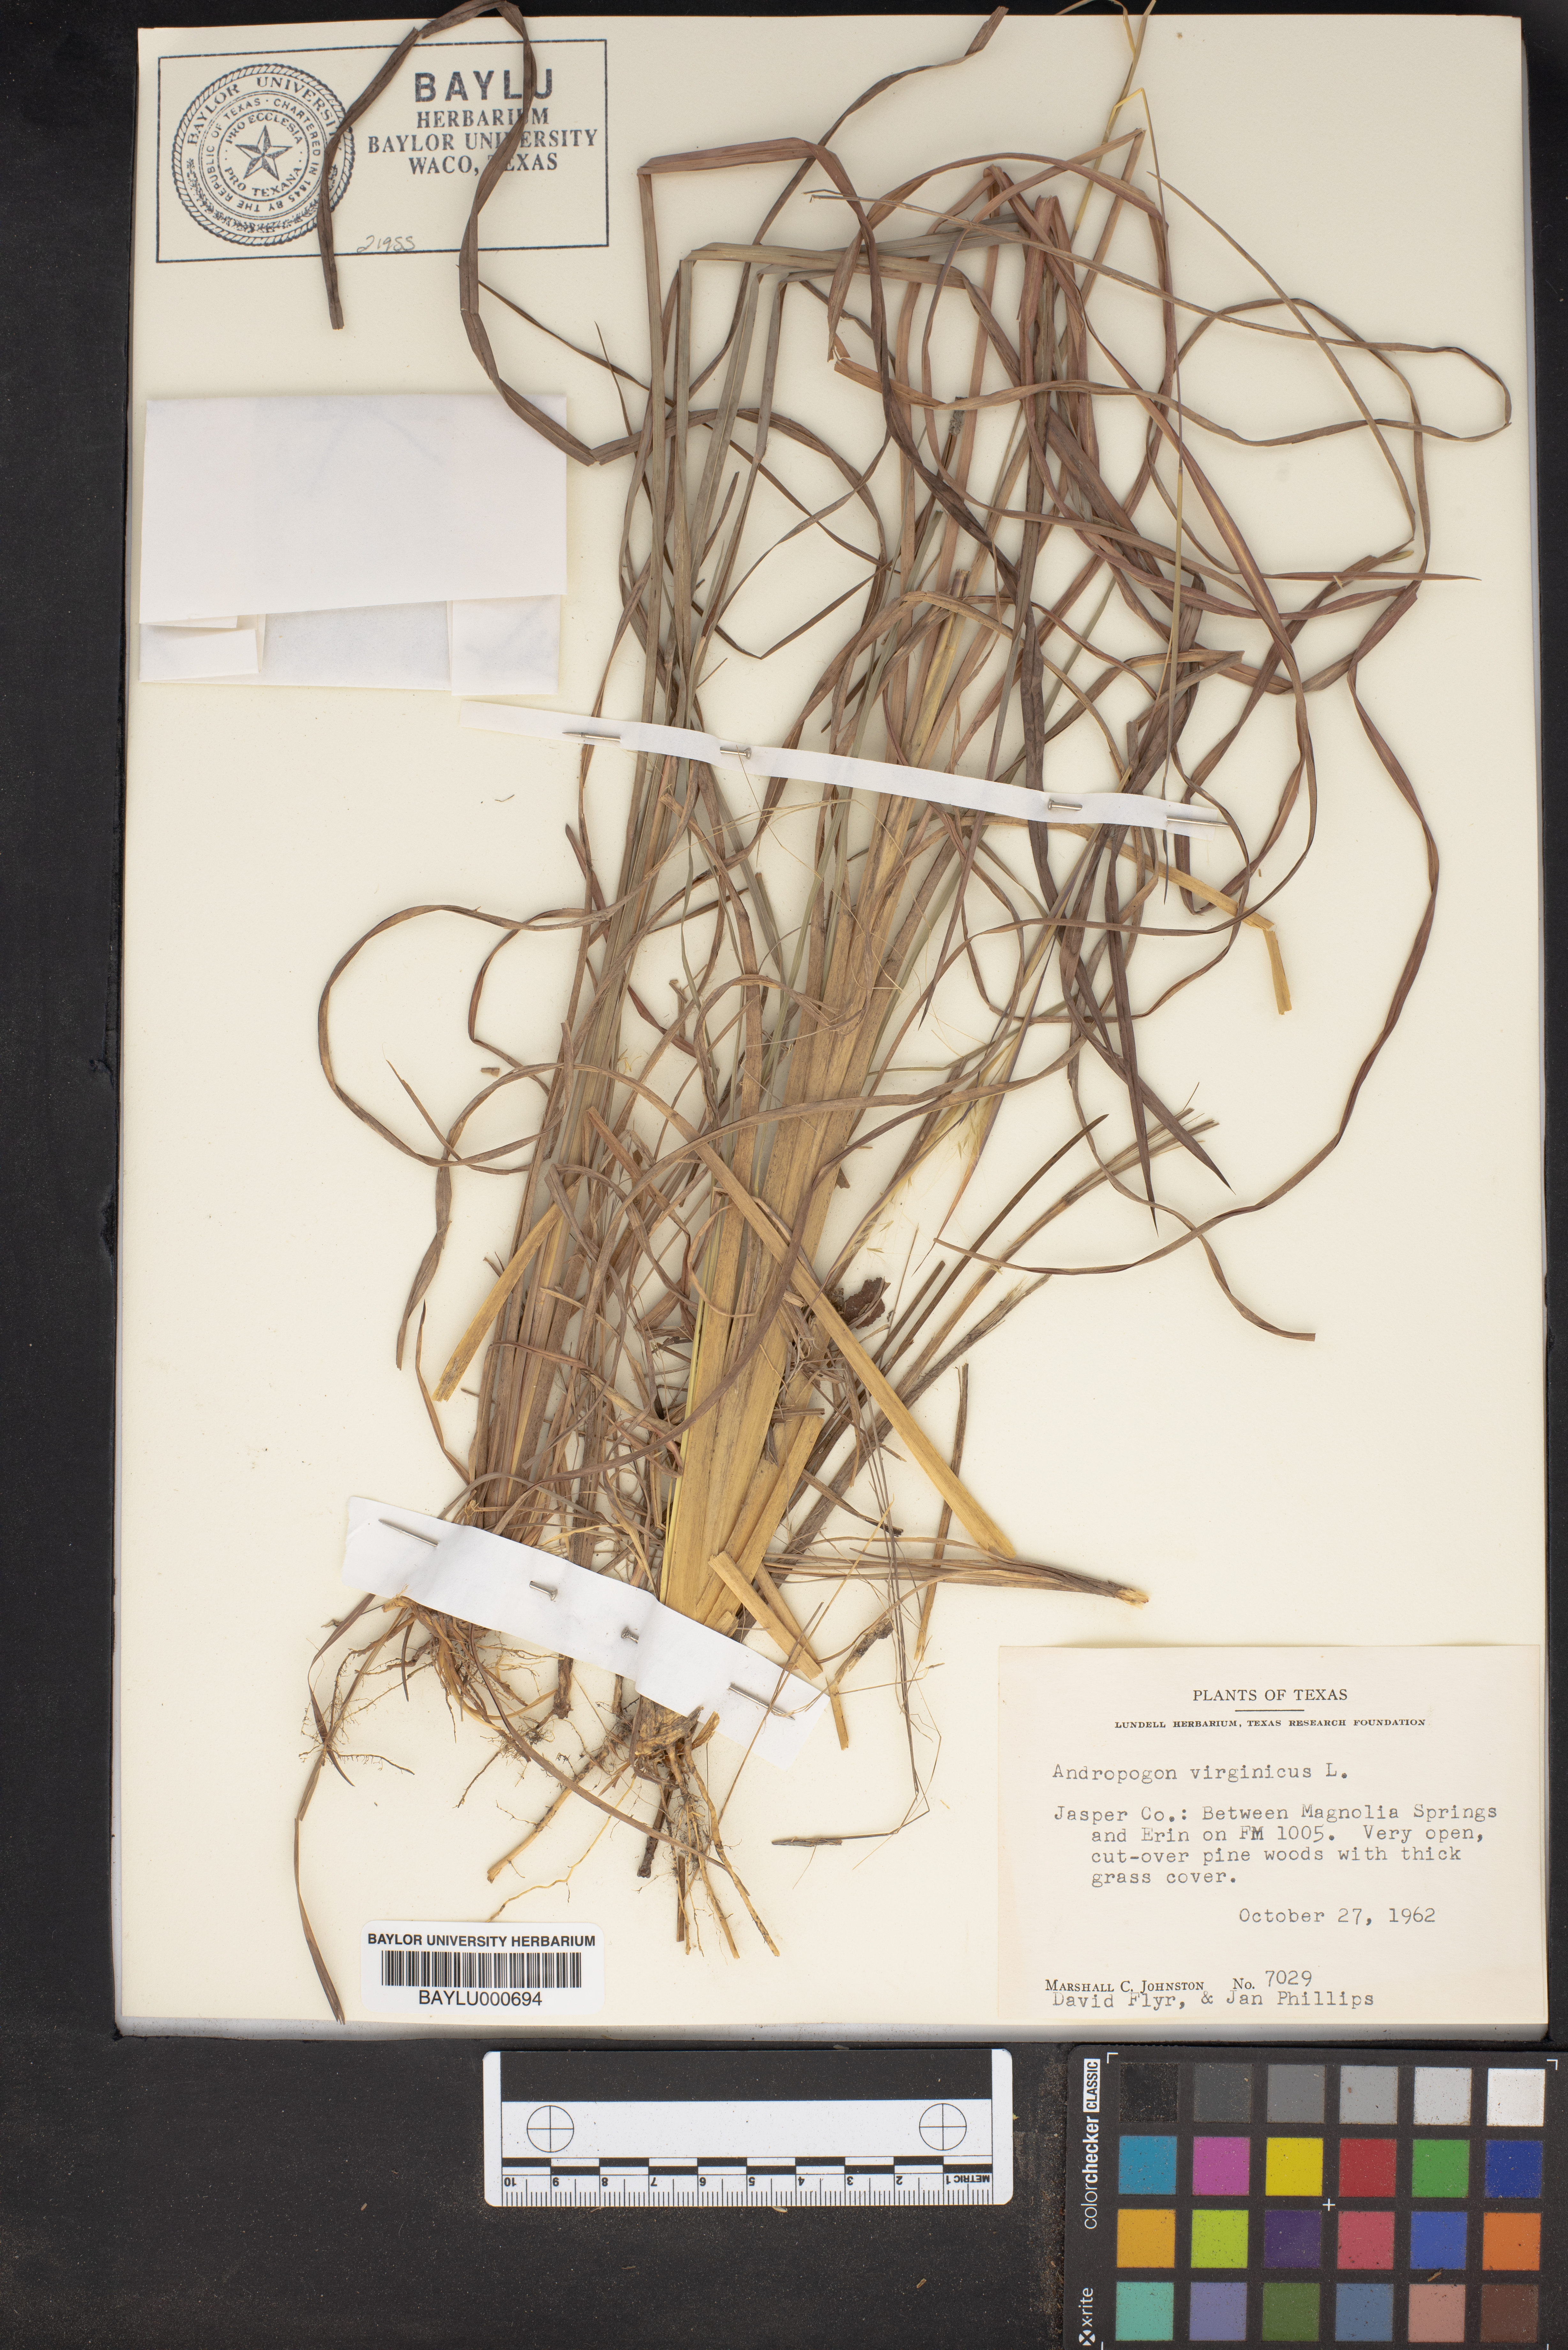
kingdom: Plantae
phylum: Tracheophyta
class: Liliopsida
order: Poales
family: Poaceae
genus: Andropogon
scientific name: Andropogon virginicus
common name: Broomsedge bluestem
